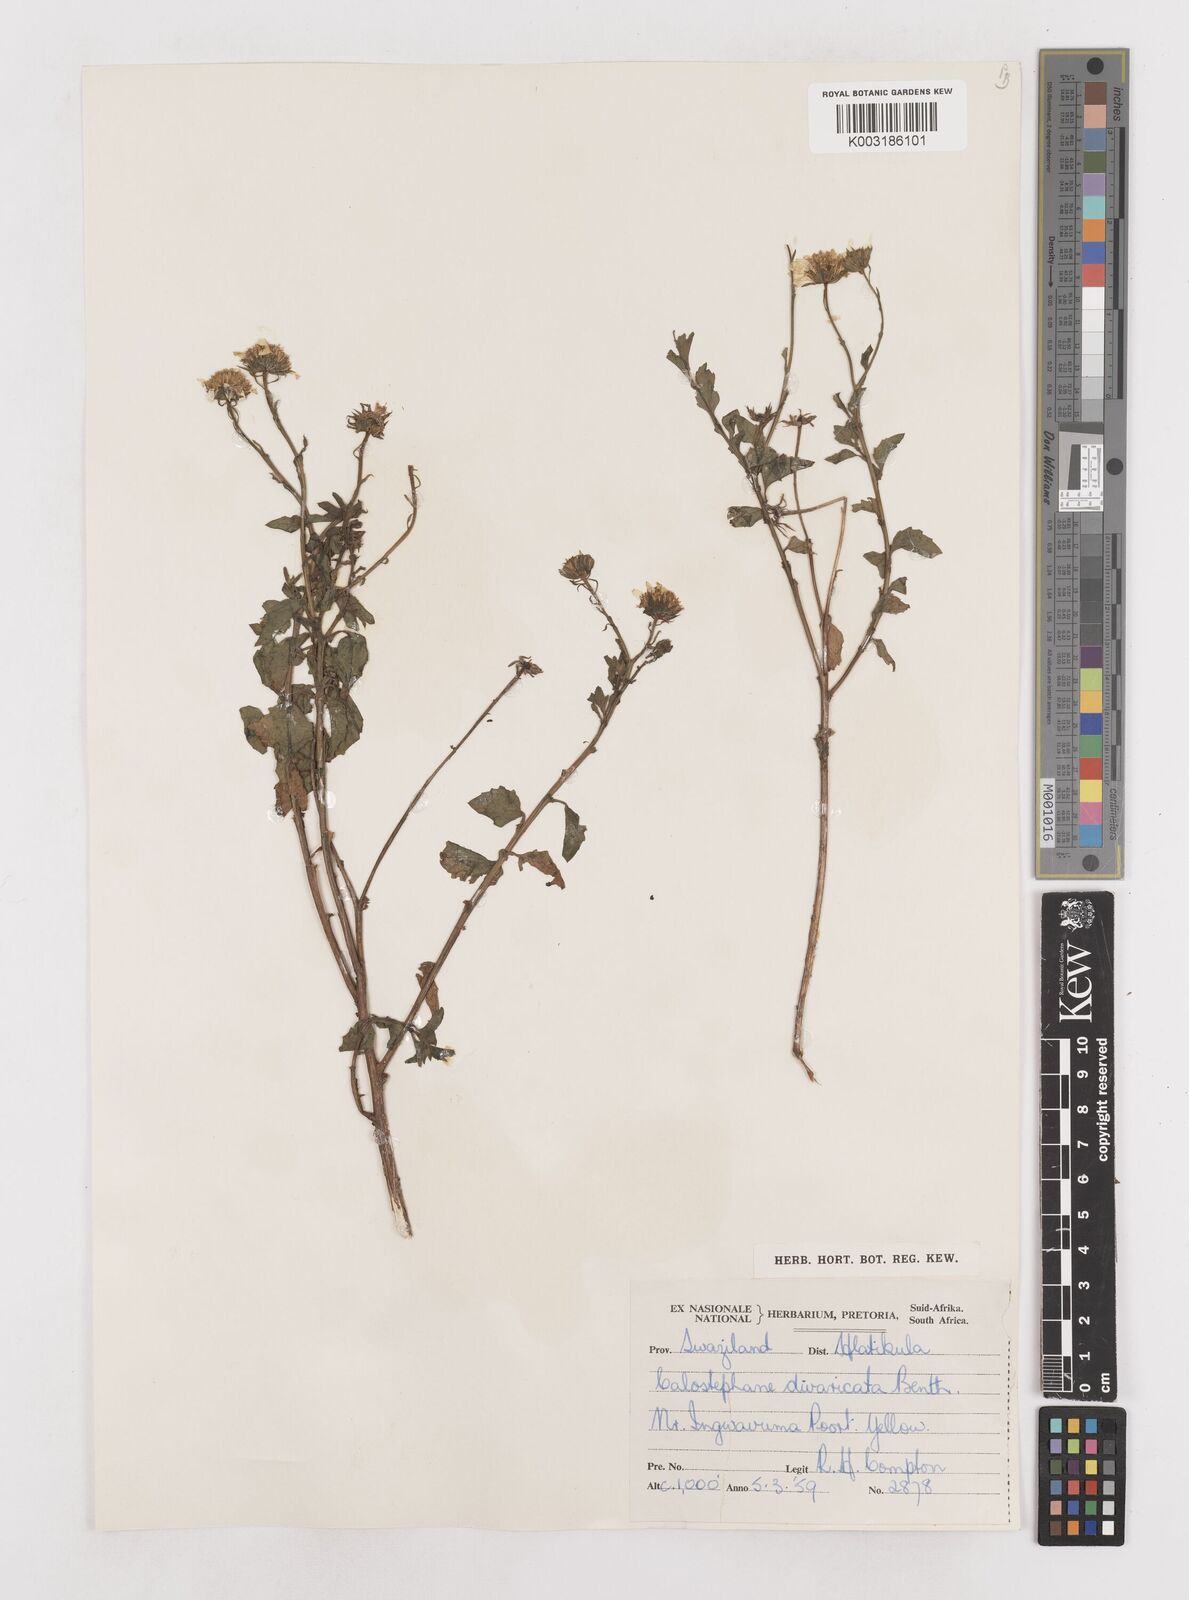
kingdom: Plantae
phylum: Tracheophyta
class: Magnoliopsida
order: Asterales
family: Asteraceae
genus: Calostephane
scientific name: Calostephane divaricata
